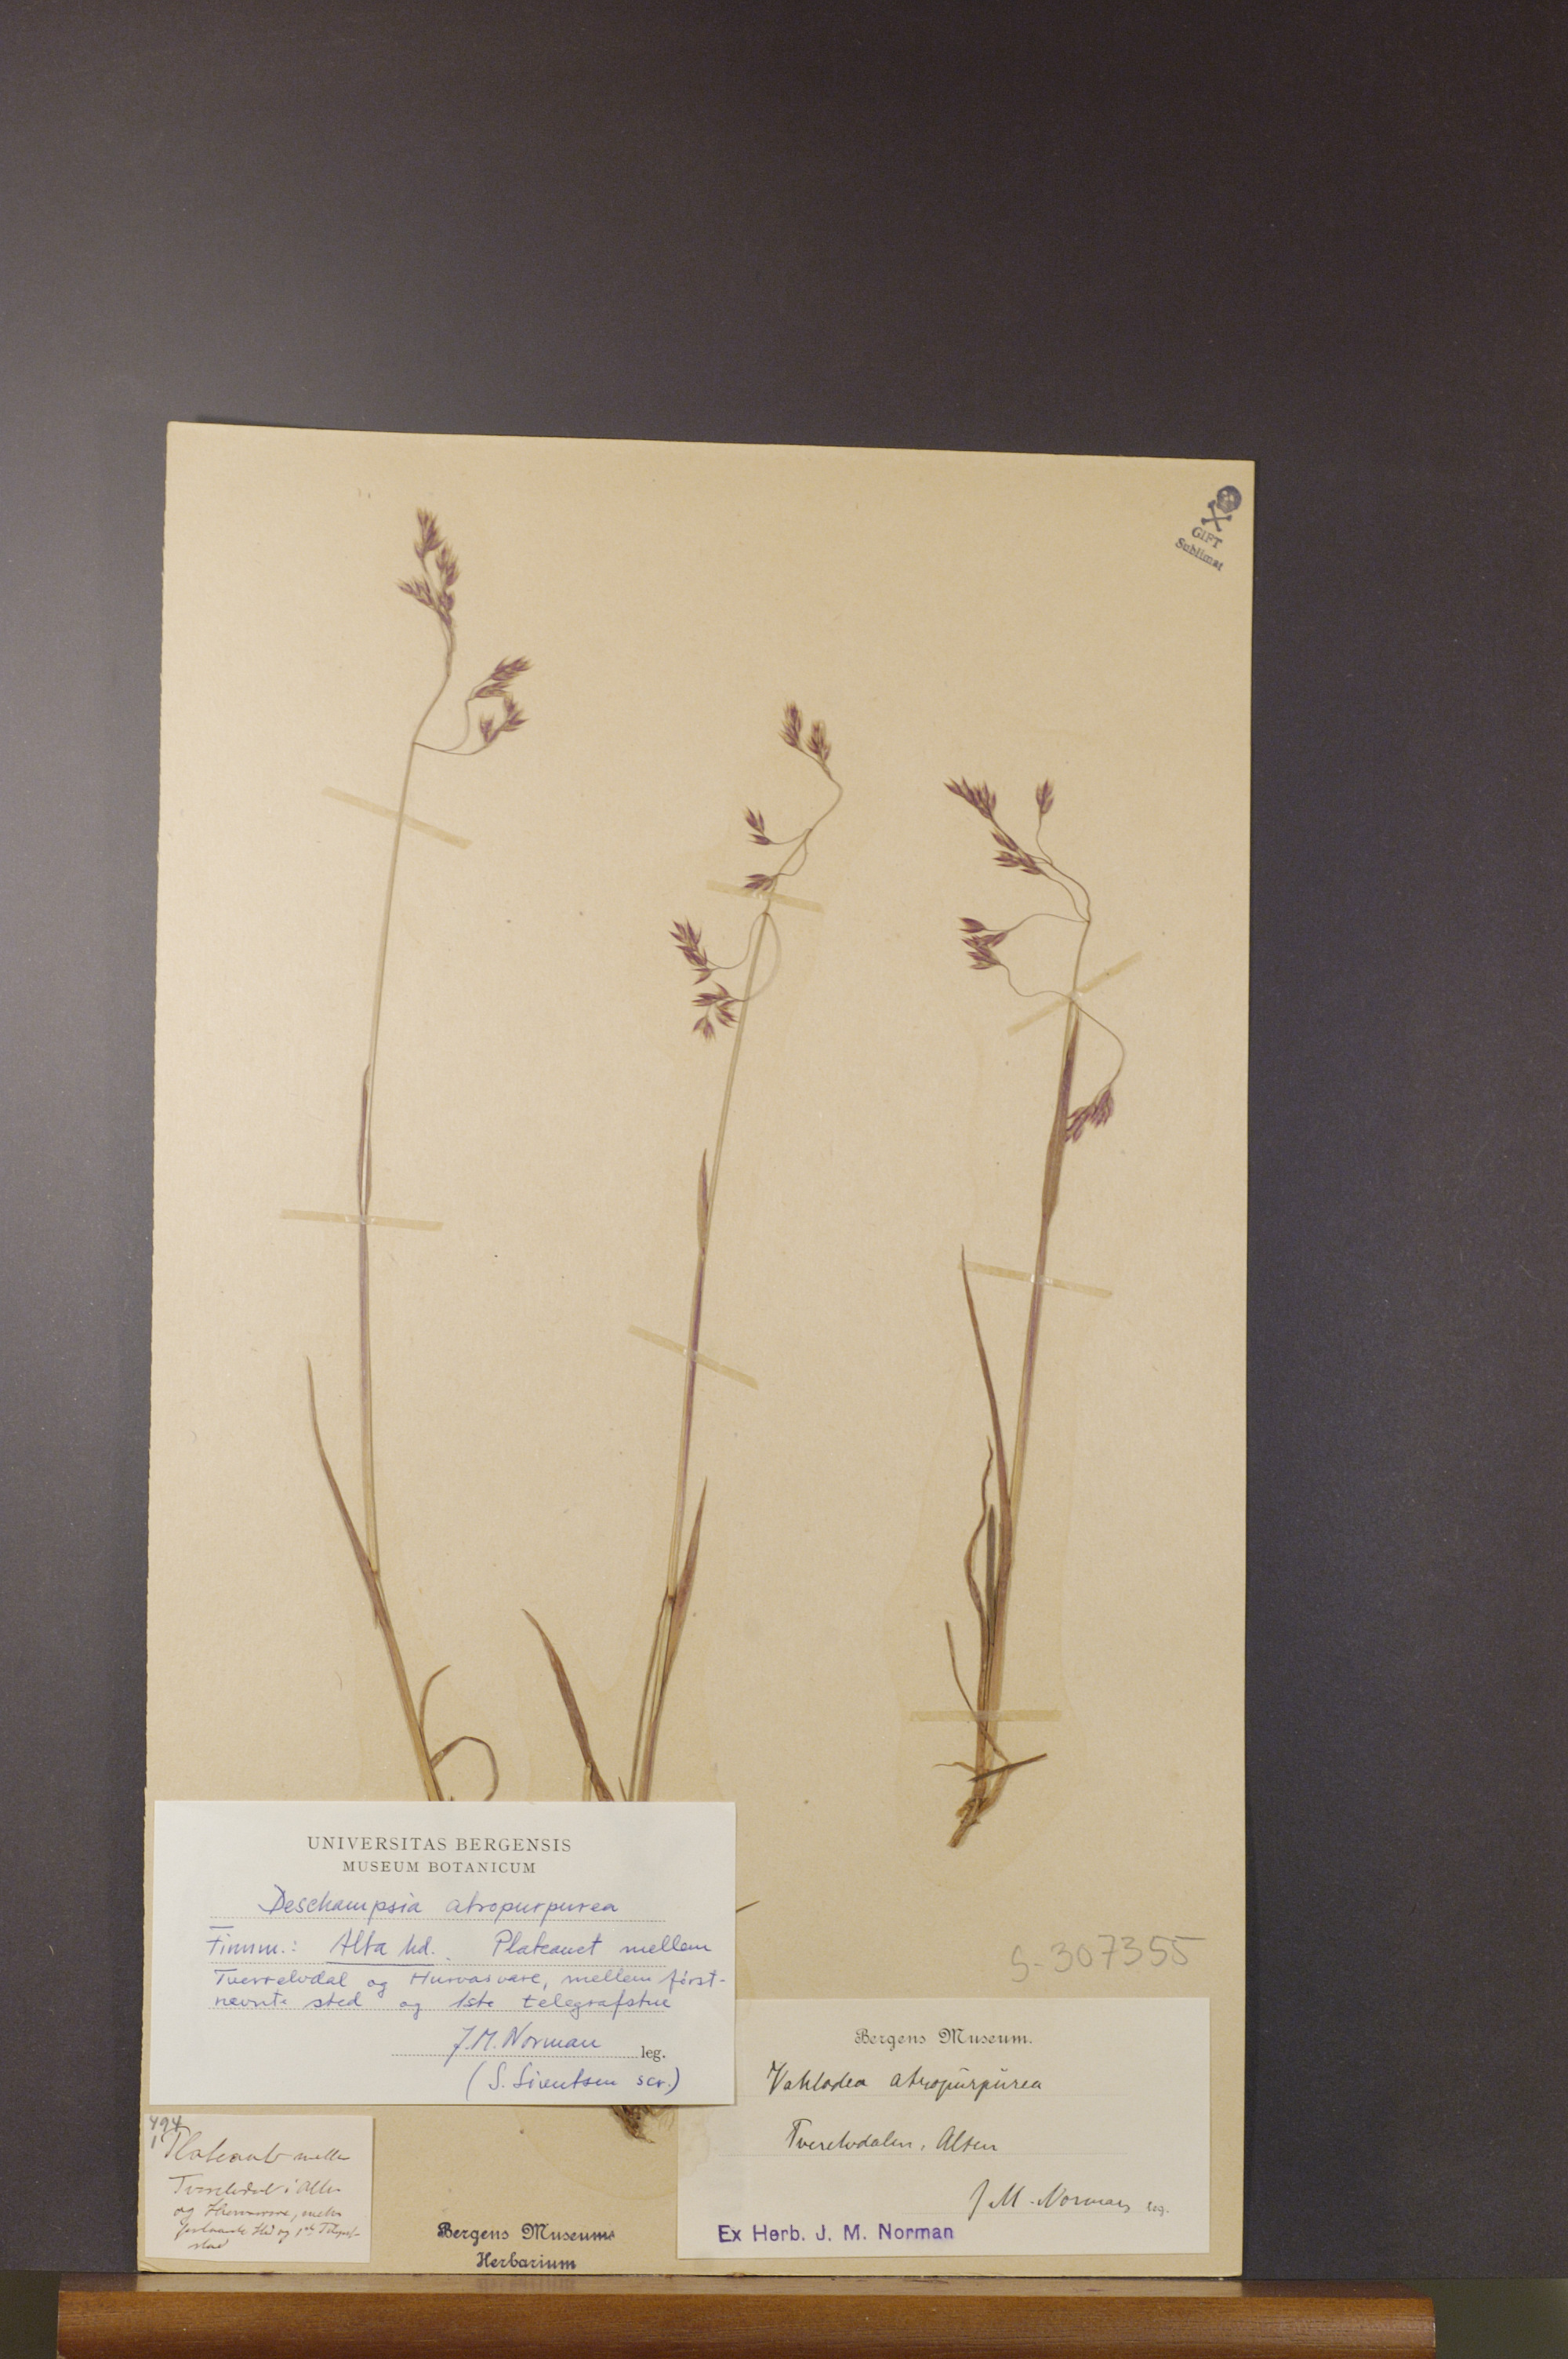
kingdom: Plantae
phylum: Tracheophyta
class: Liliopsida
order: Poales
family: Poaceae
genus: Vahlodea
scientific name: Vahlodea atropurpurea
